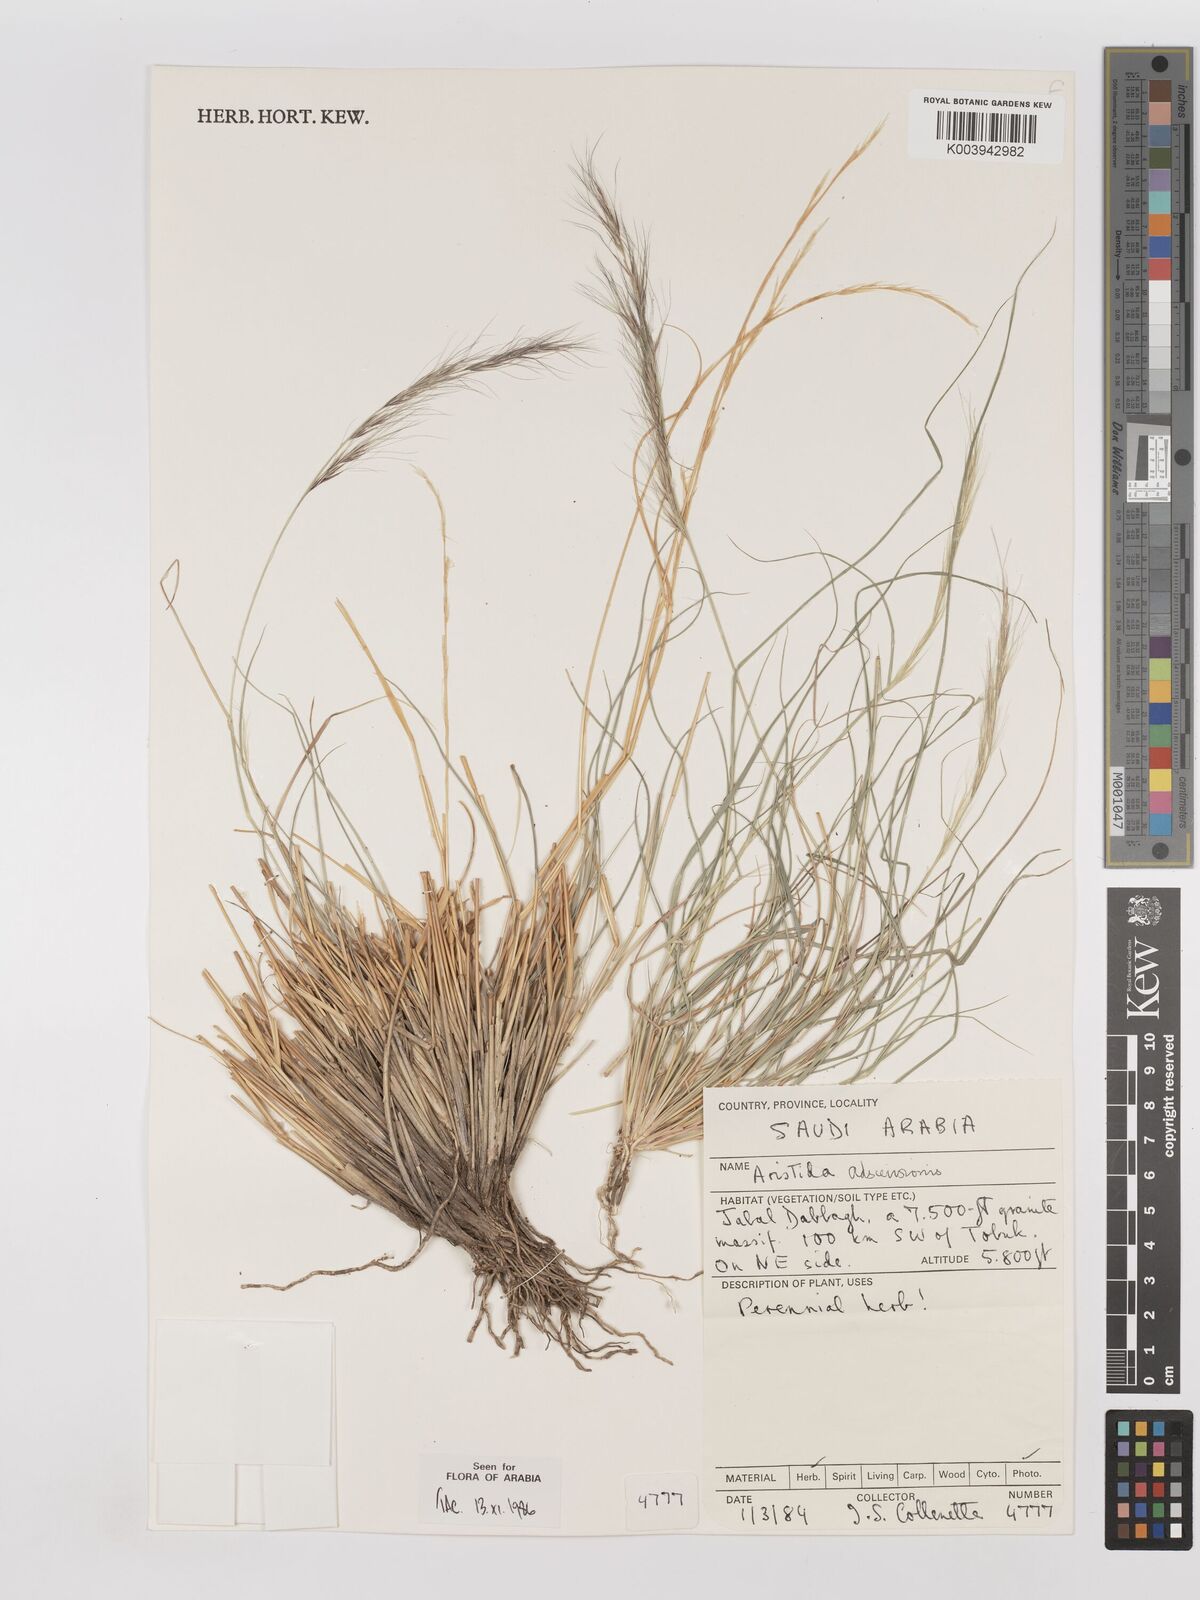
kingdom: Plantae
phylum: Tracheophyta
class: Liliopsida
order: Poales
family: Poaceae
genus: Aristida
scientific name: Aristida adscensionis
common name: Sixweeks threeawn
